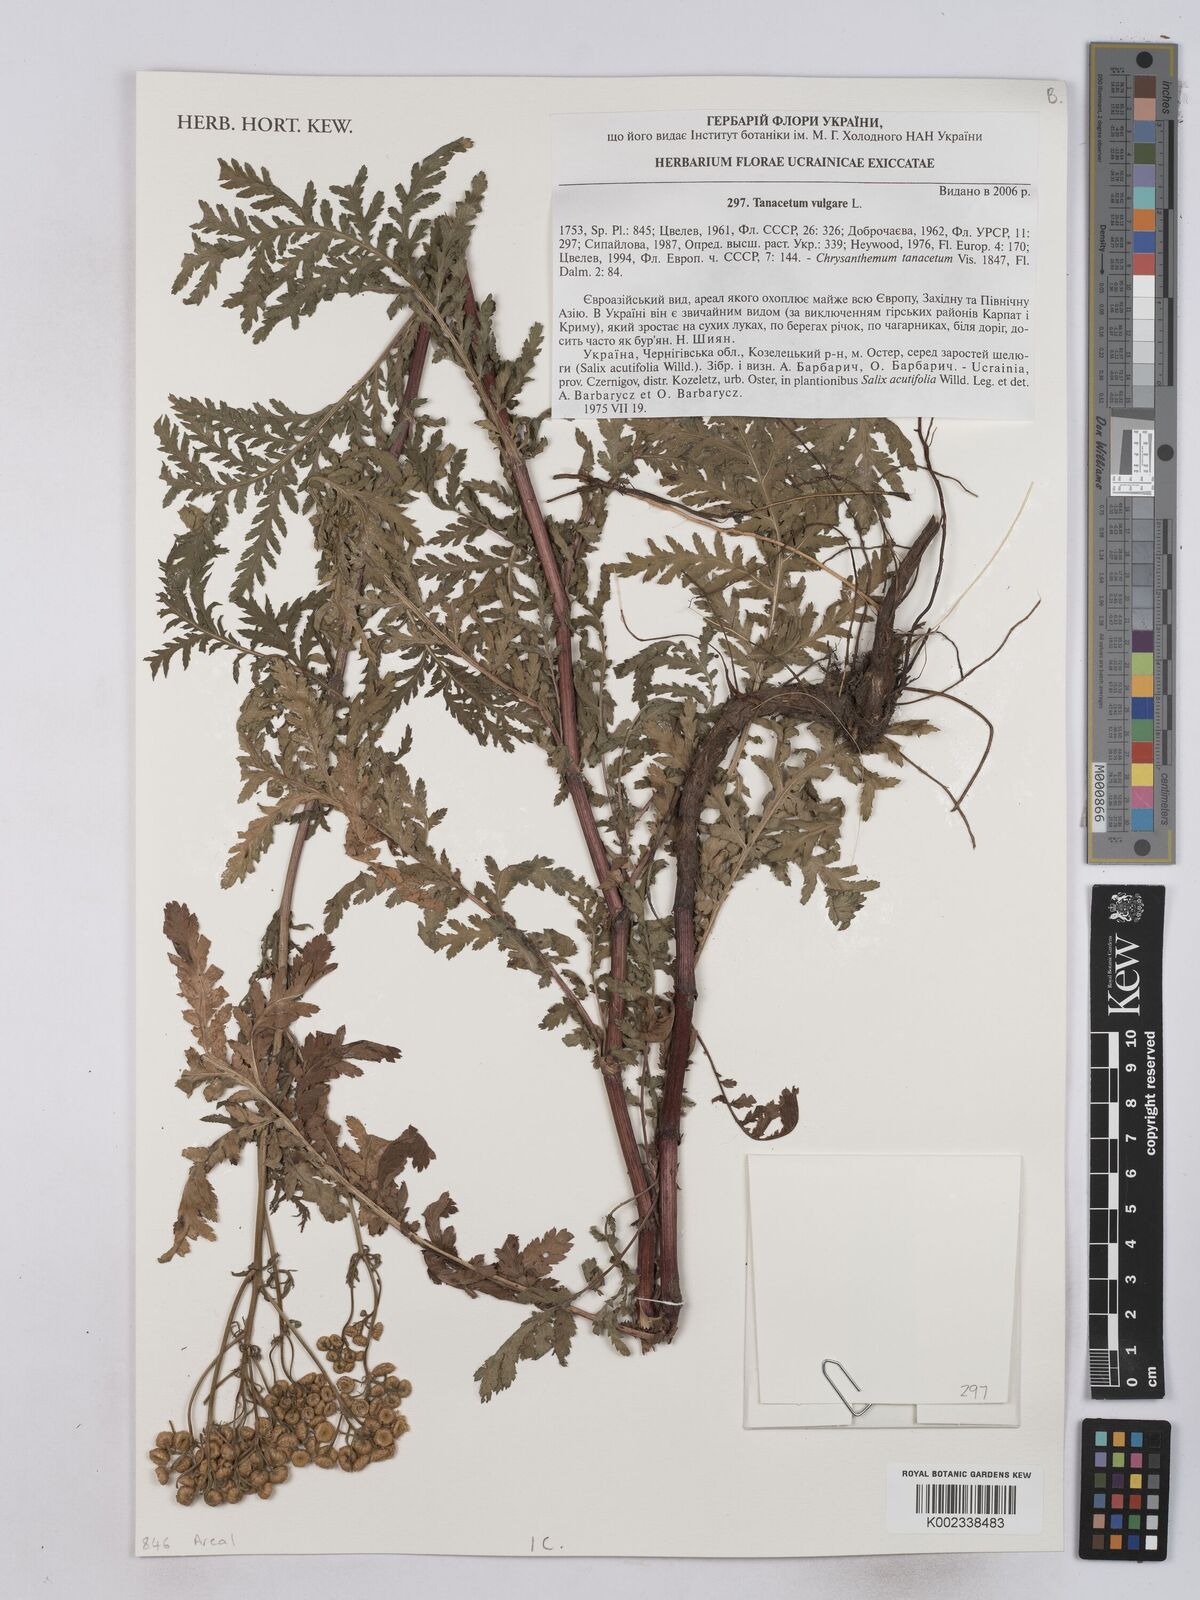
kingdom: Plantae
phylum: Tracheophyta
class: Magnoliopsida
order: Asterales
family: Asteraceae
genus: Tanacetum
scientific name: Tanacetum vulgare
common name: Common tansy
